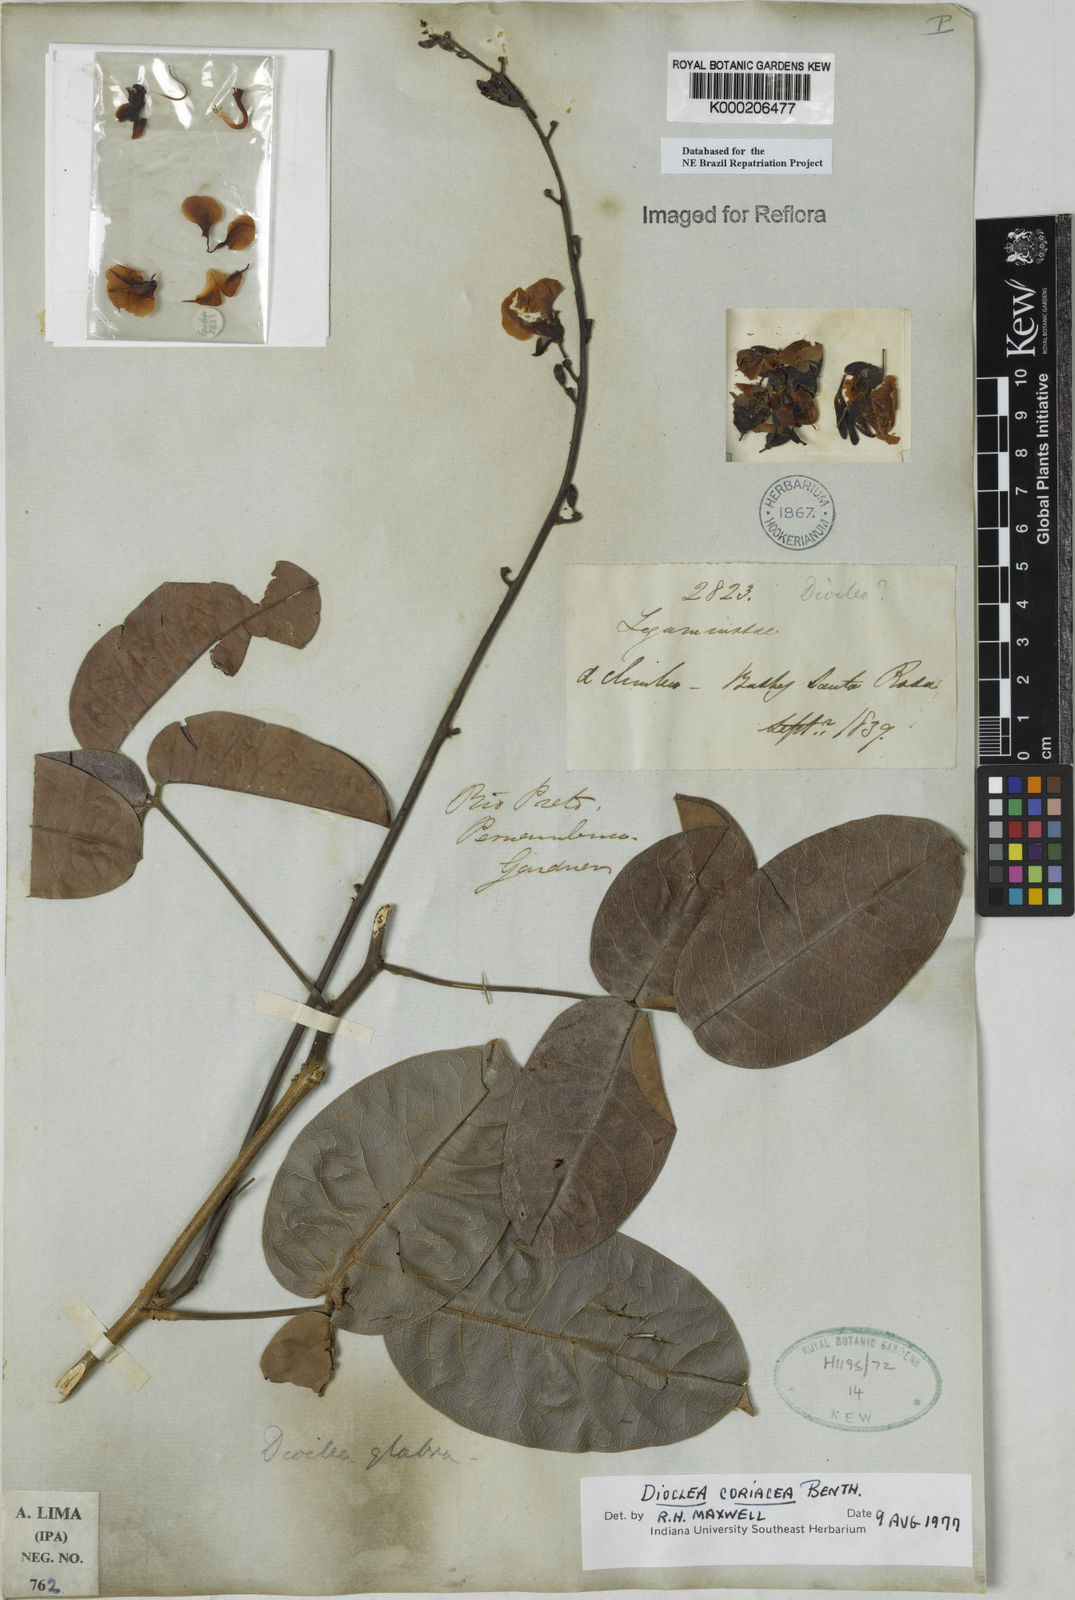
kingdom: Plantae
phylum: Tracheophyta
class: Magnoliopsida
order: Fabales
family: Fabaceae
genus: Macropsychanthus
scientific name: Macropsychanthus coriaceus
